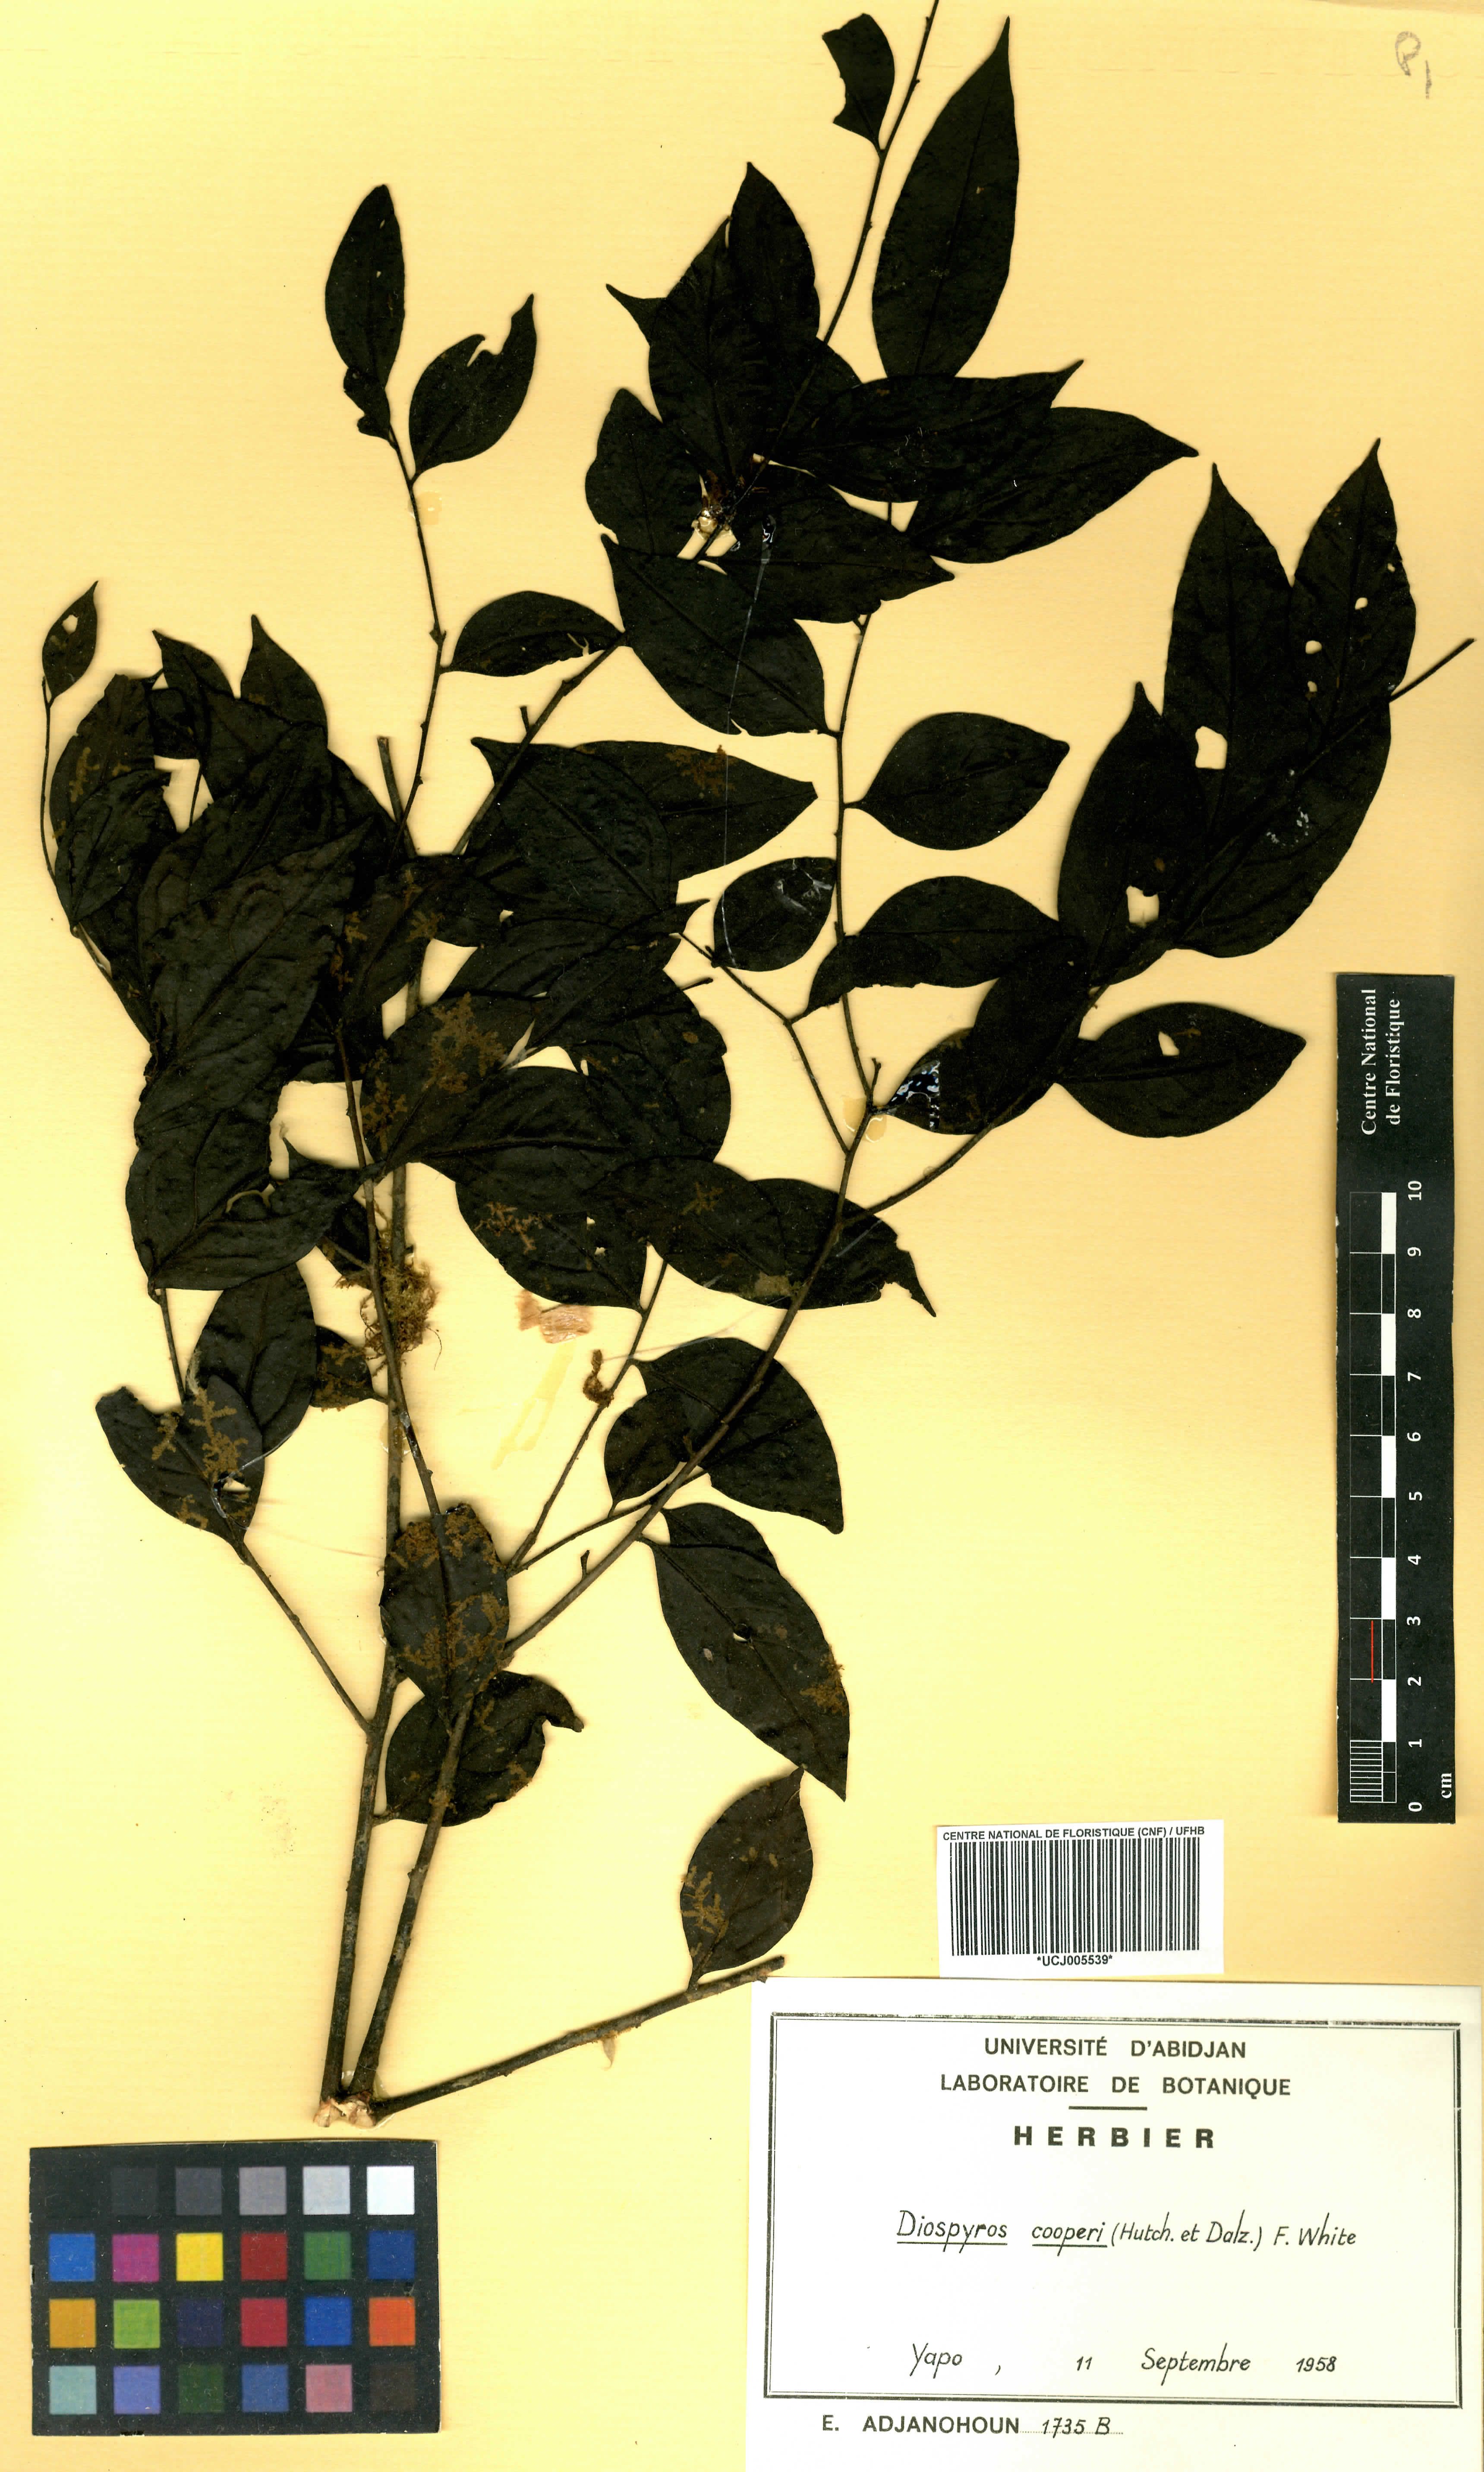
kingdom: Plantae
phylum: Tracheophyta
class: Magnoliopsida
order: Ericales
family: Ebenaceae
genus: Diospyros
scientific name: Diospyros cooperi
